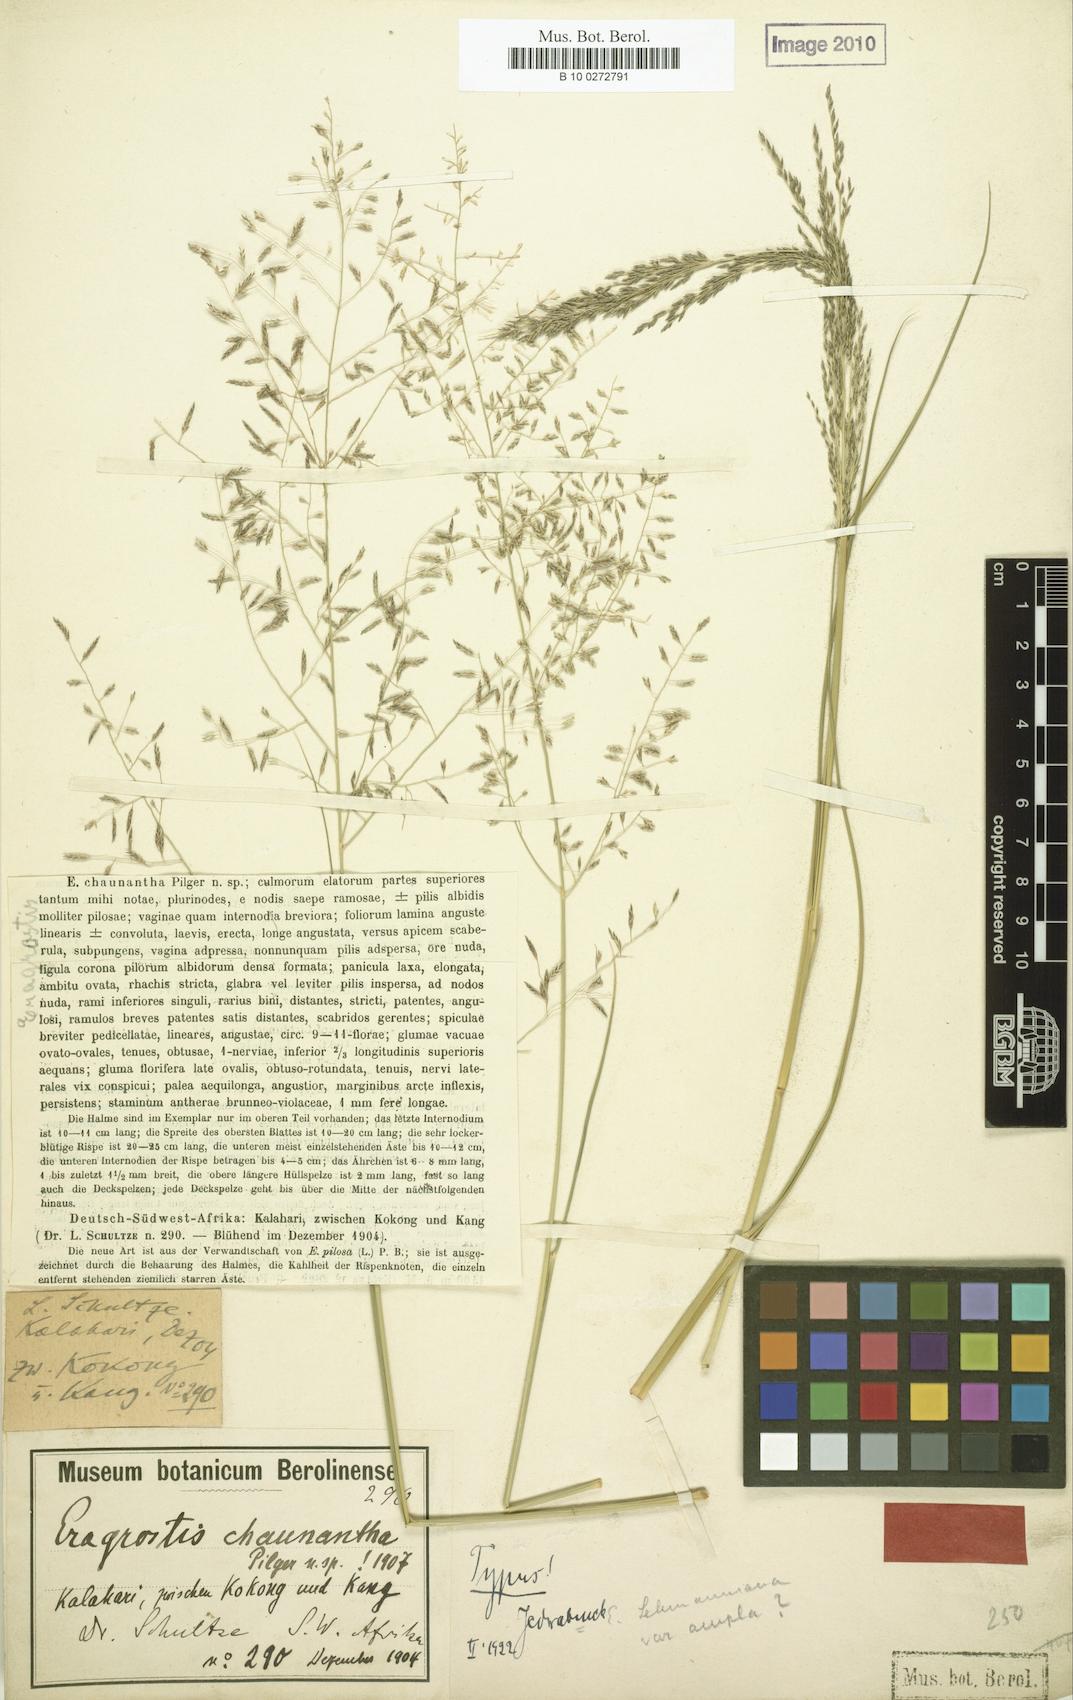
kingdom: Plantae
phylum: Tracheophyta
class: Liliopsida
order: Poales
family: Poaceae
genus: Eragrostis
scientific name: Eragrostis lehmanniana
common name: Lehmann lovegrass
